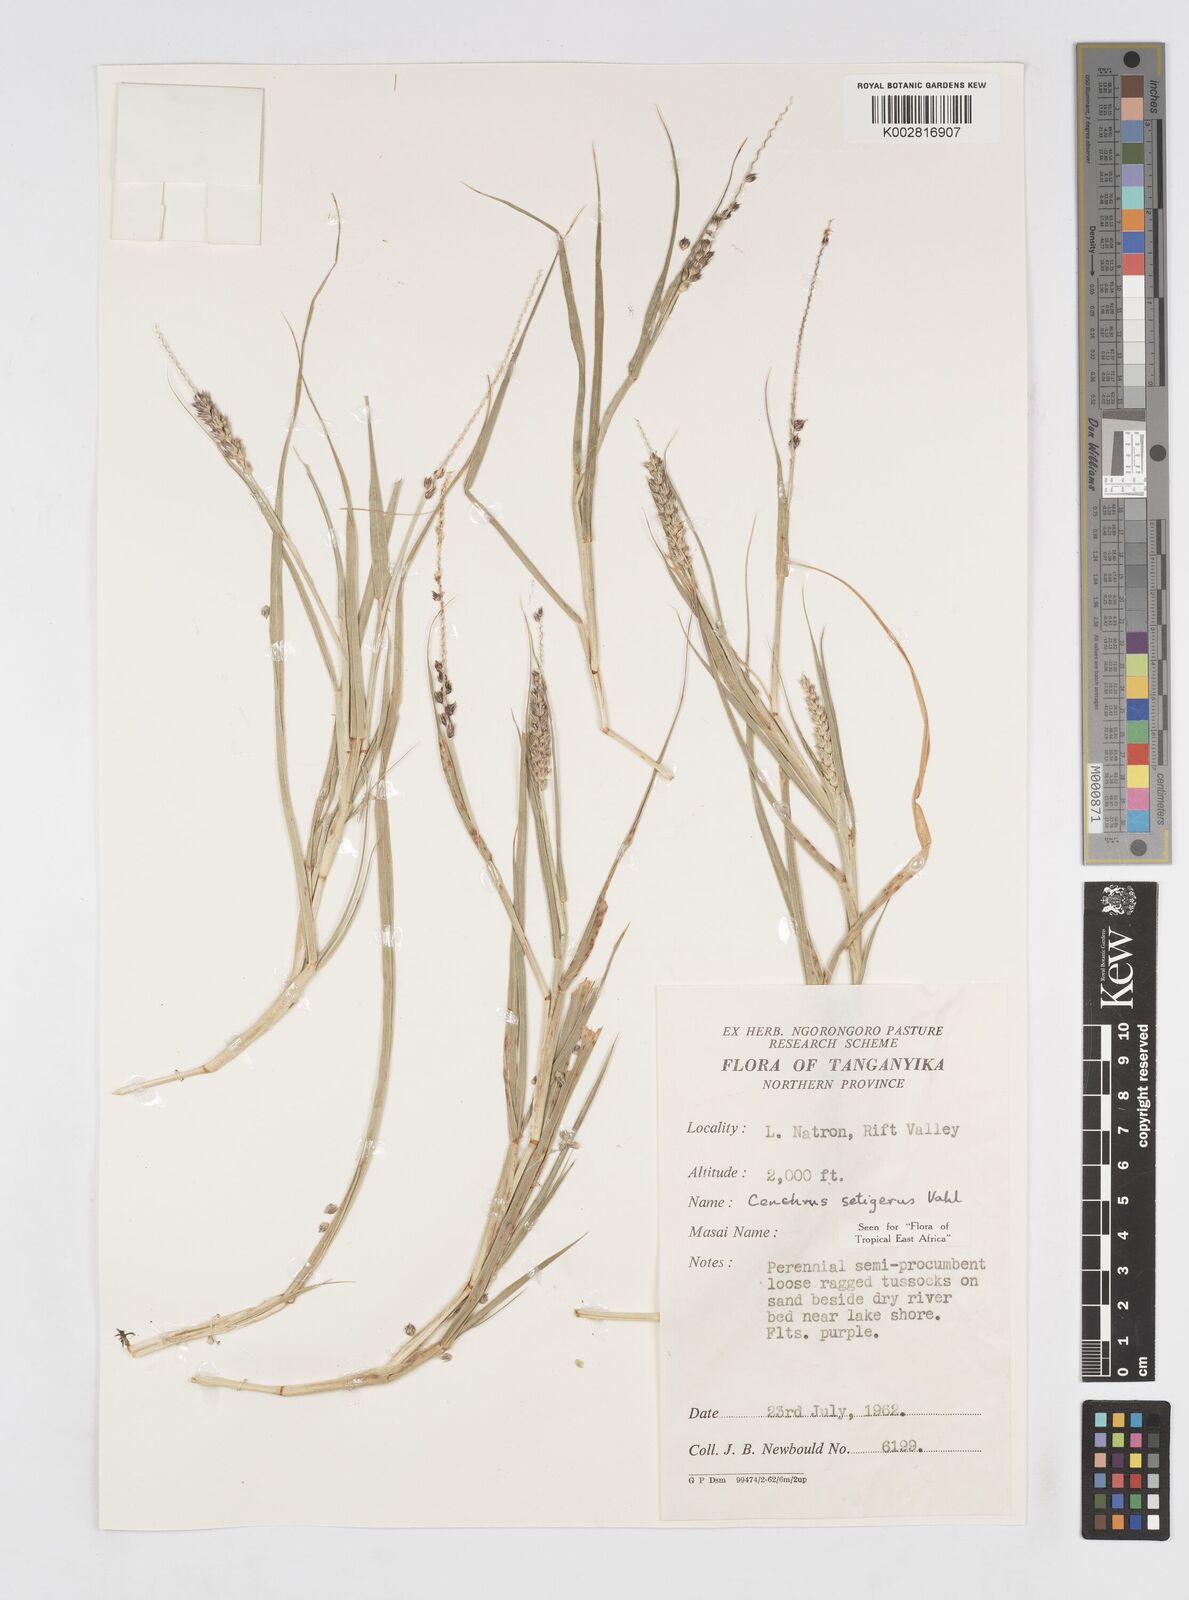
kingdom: Plantae
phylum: Tracheophyta
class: Liliopsida
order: Poales
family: Poaceae
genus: Cenchrus
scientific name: Cenchrus setigerus
